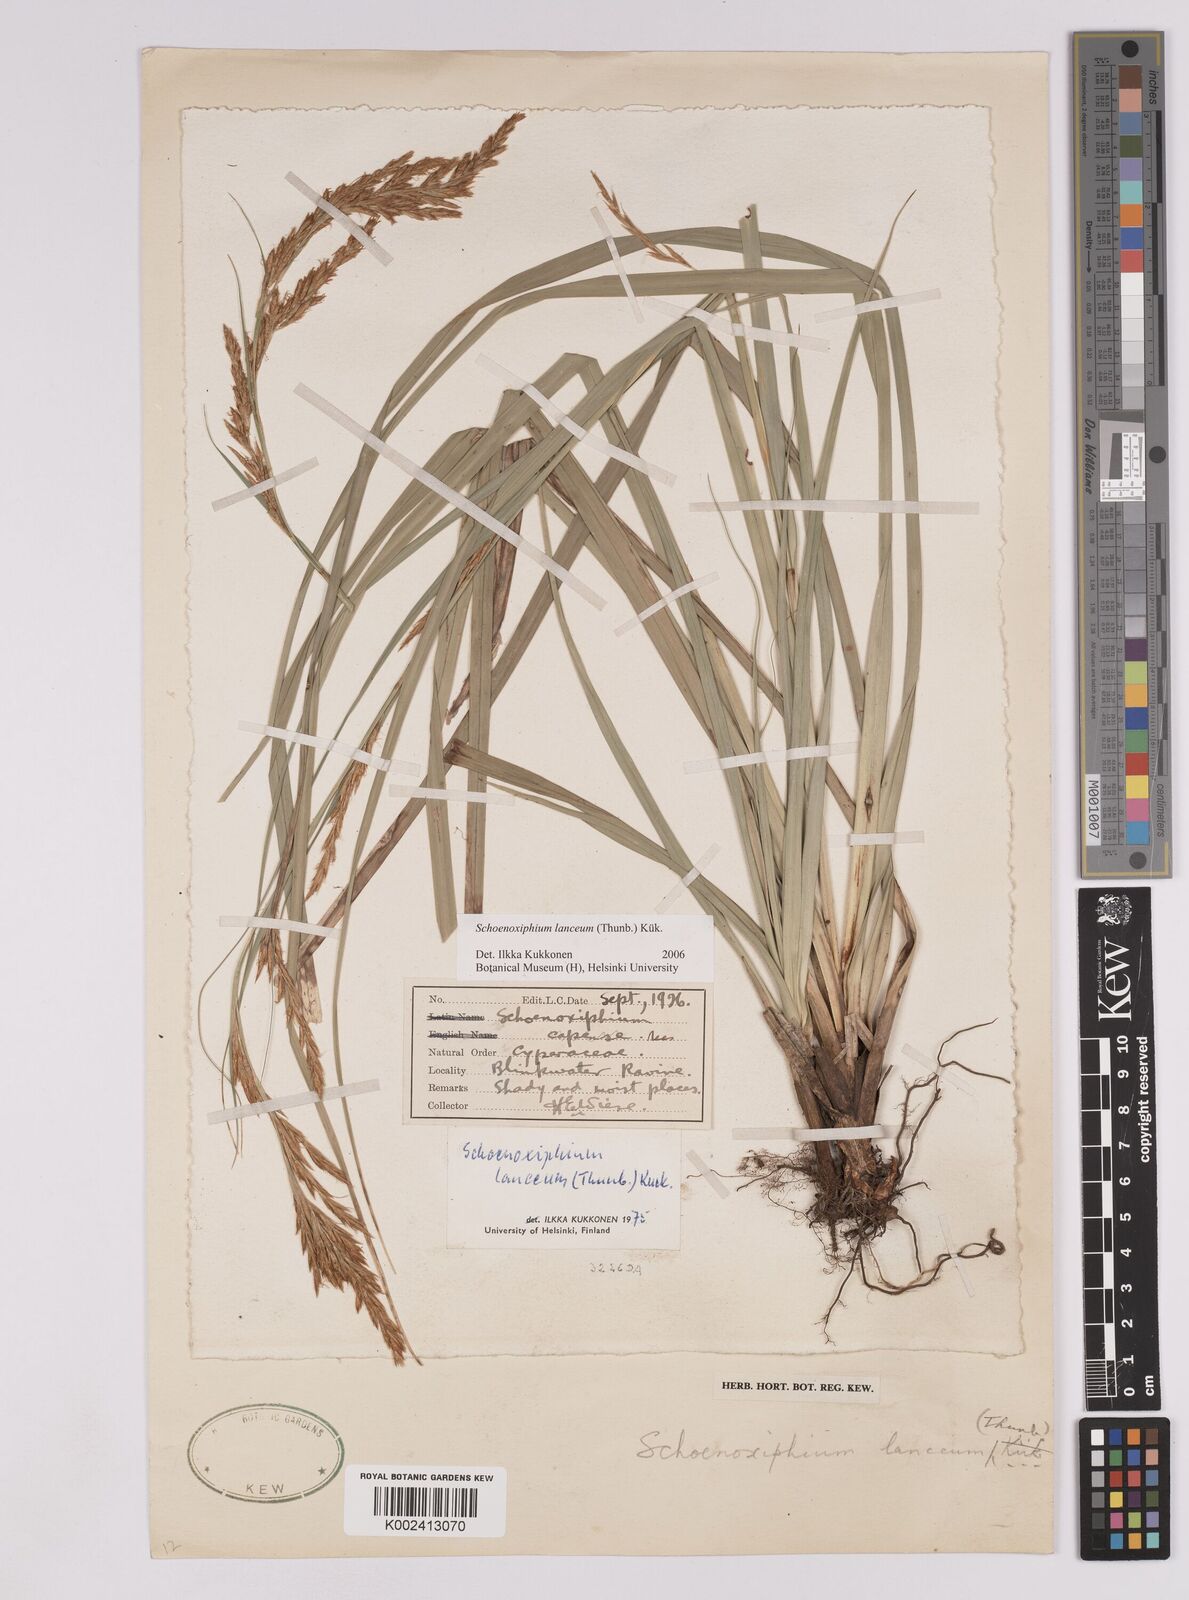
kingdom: Plantae
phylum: Tracheophyta
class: Liliopsida
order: Poales
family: Cyperaceae
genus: Carex
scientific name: Carex lancea
